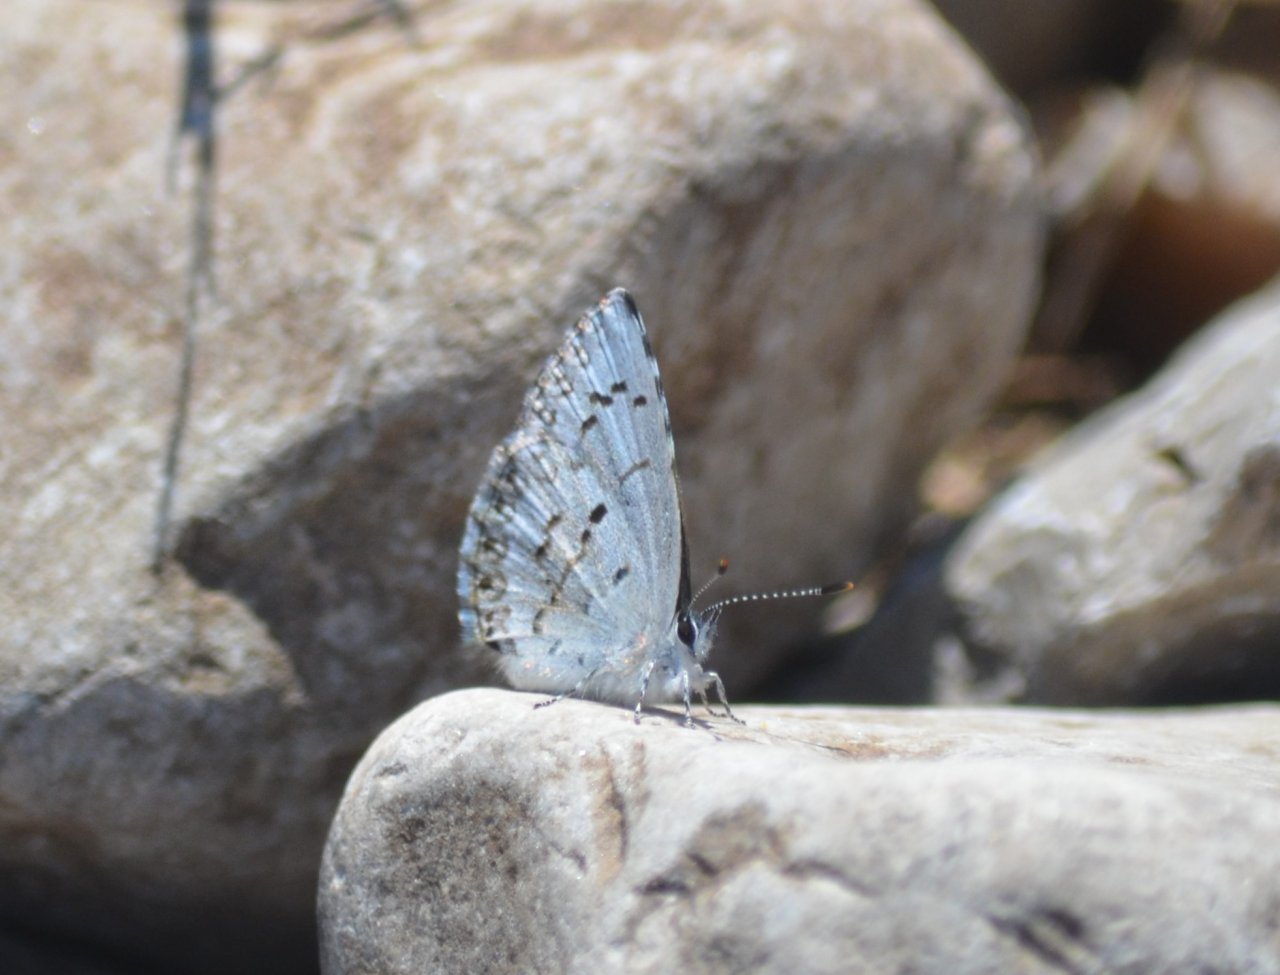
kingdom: Animalia
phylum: Arthropoda
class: Insecta
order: Lepidoptera
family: Lycaenidae
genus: Celastrina
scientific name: Celastrina
